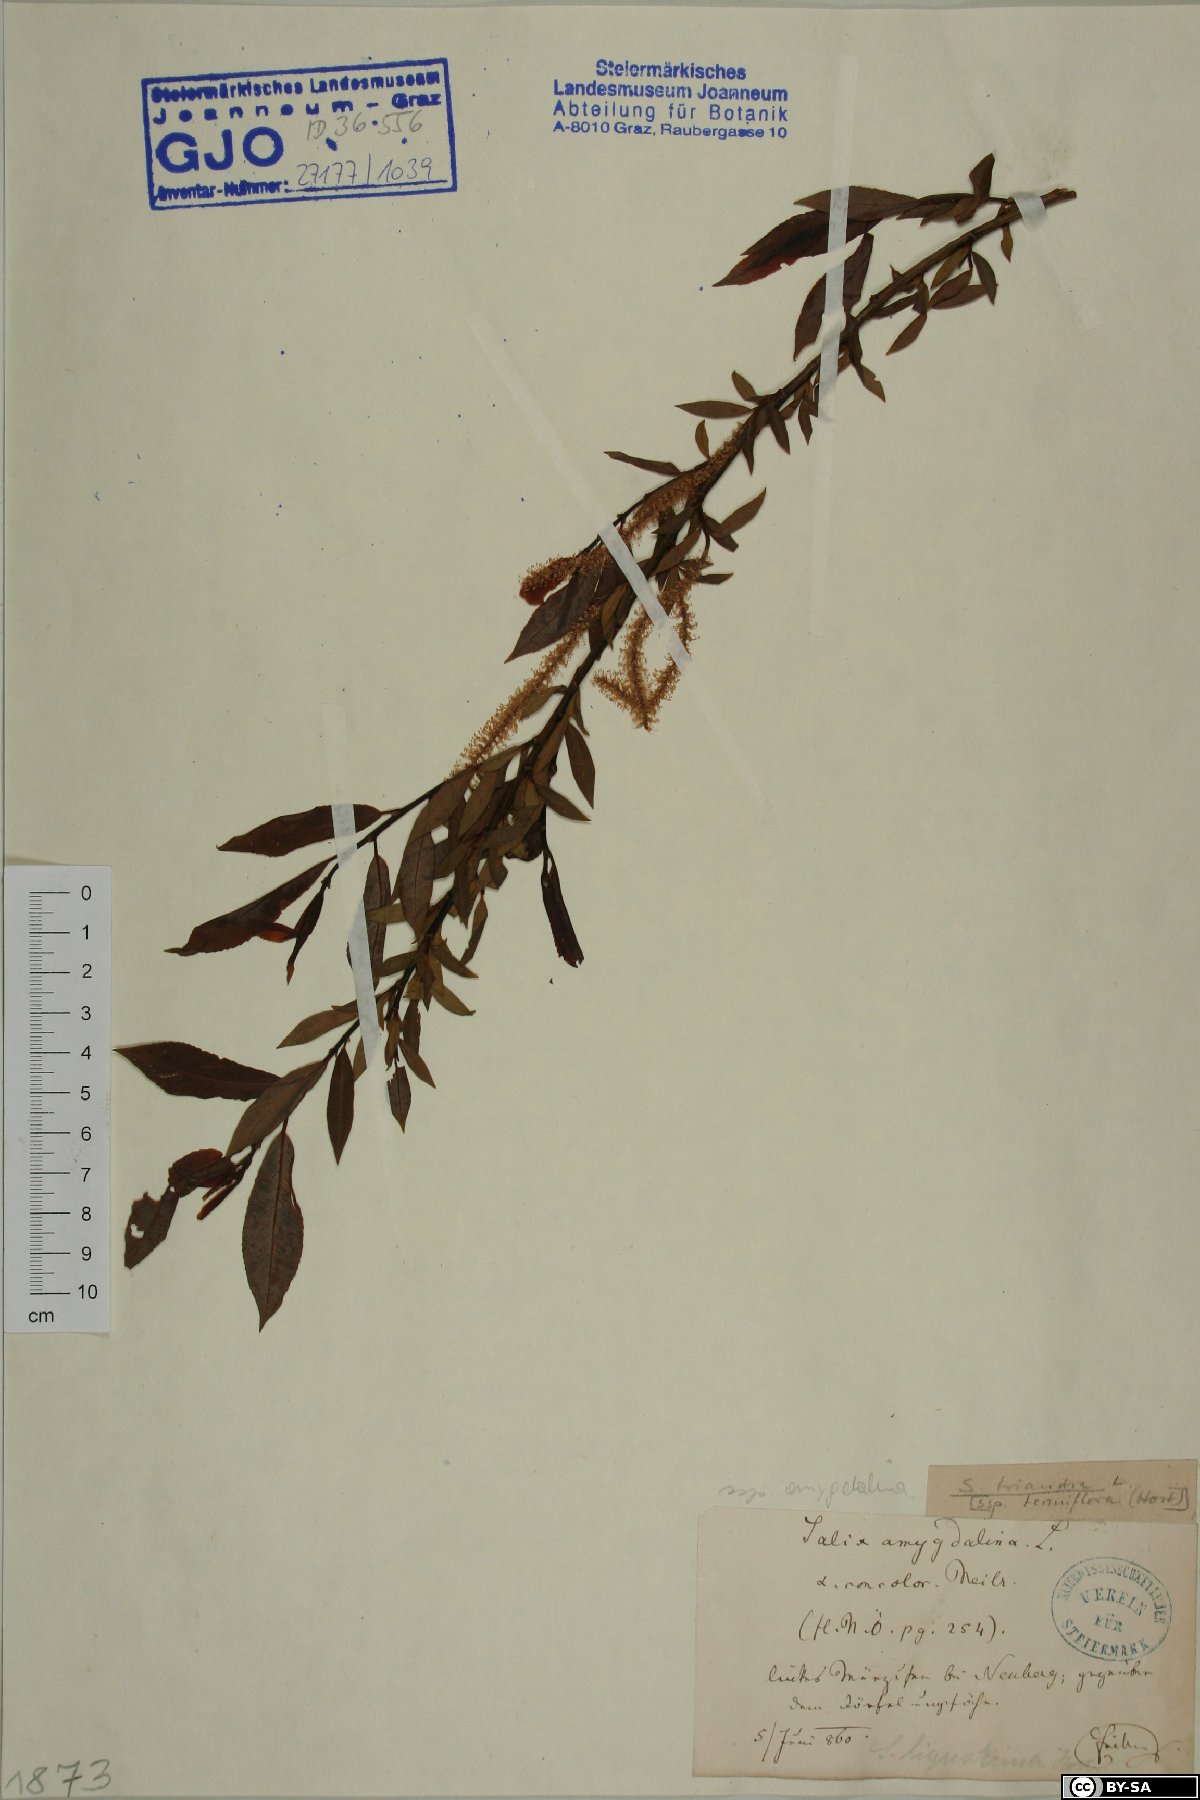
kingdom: Plantae
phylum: Tracheophyta
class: Magnoliopsida
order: Malpighiales
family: Salicaceae
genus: Salix
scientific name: Salix triandra
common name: Almond willow
